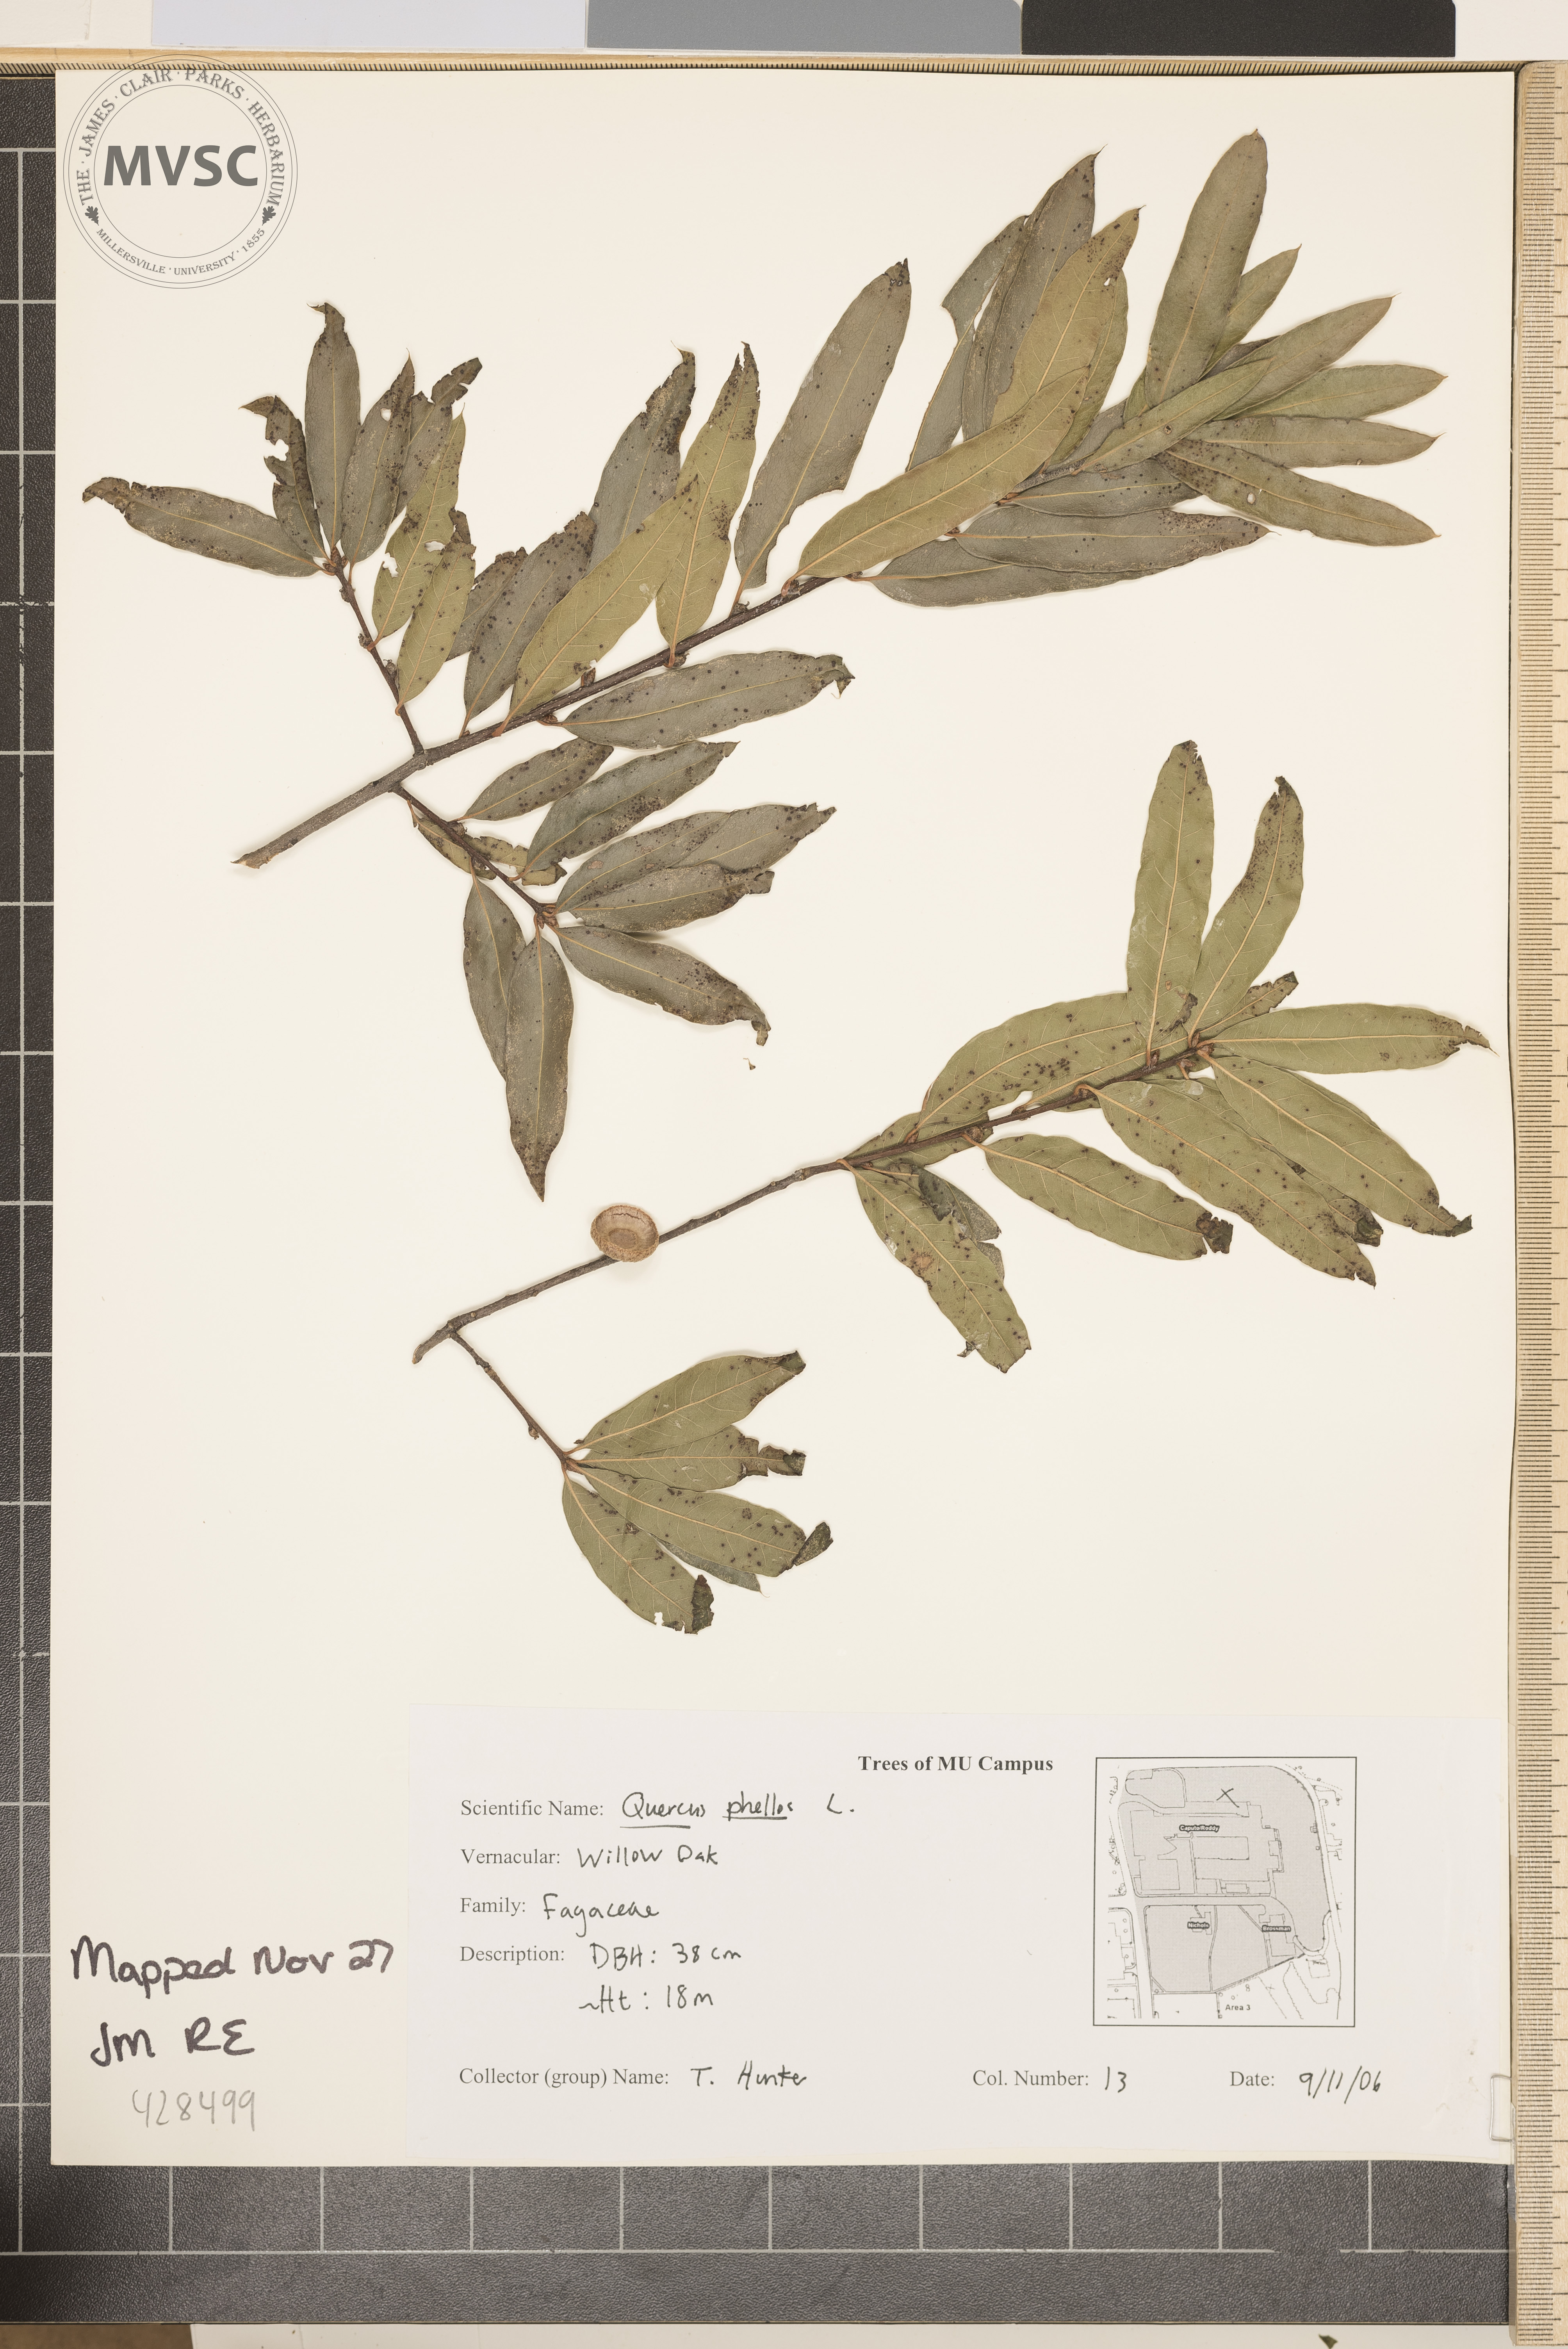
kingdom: Plantae
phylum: Tracheophyta
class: Magnoliopsida
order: Fagales
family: Fagaceae
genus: Quercus
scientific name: Quercus phellos
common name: Willow Oak
